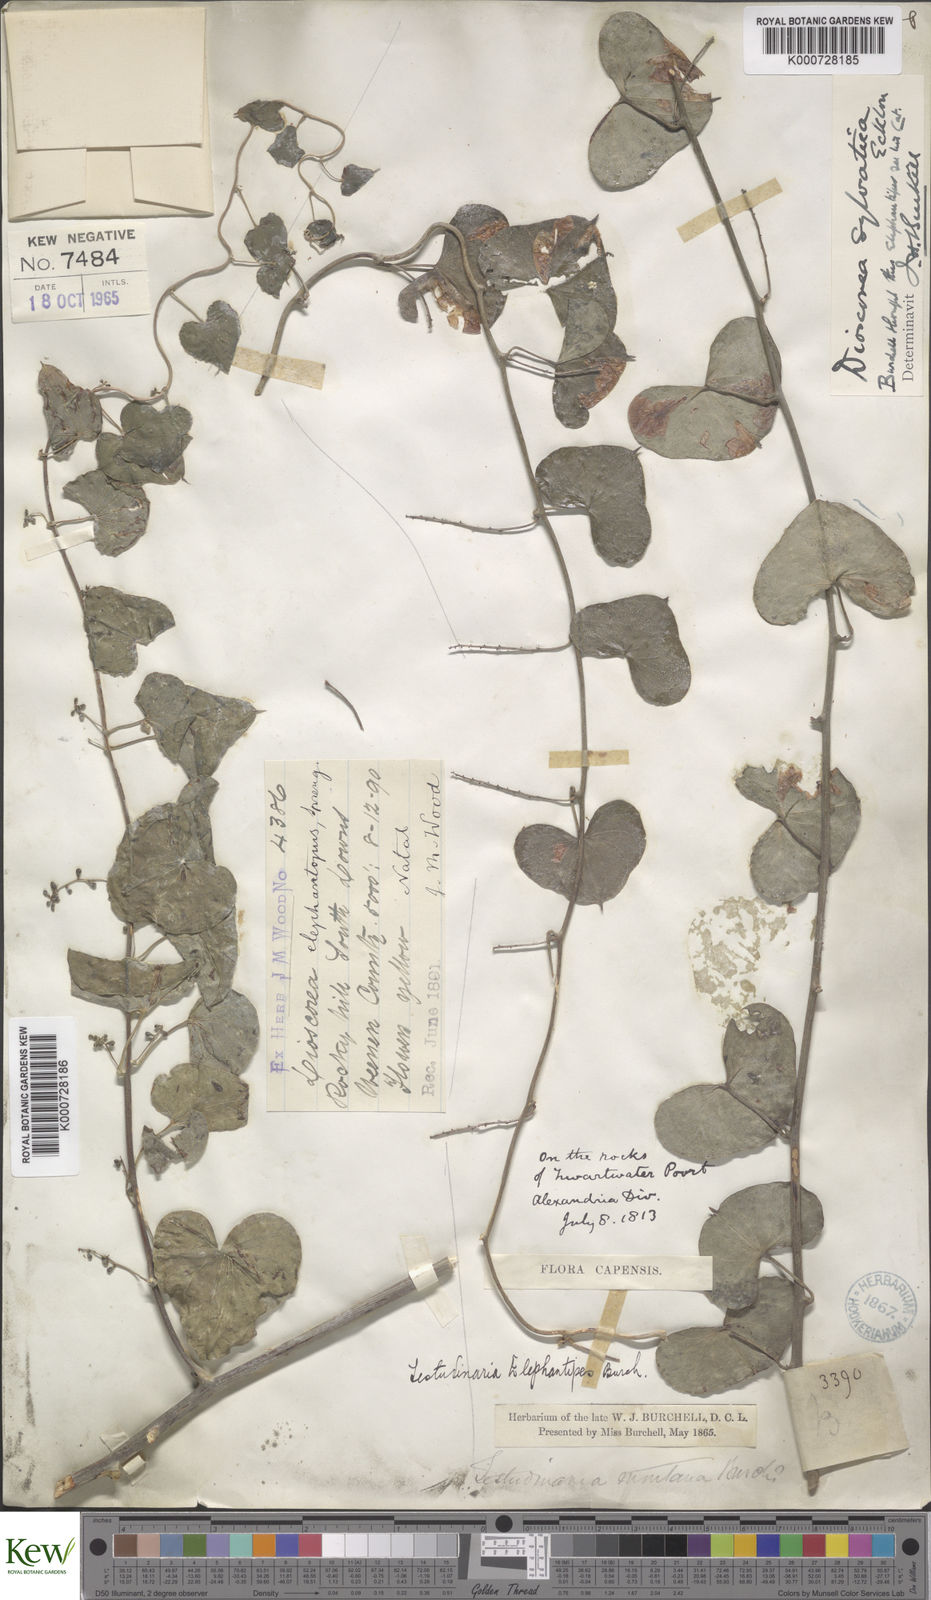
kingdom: Plantae
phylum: Tracheophyta
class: Liliopsida
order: Dioscoreales
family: Dioscoreaceae
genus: Dioscorea
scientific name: Dioscorea sylvatica
